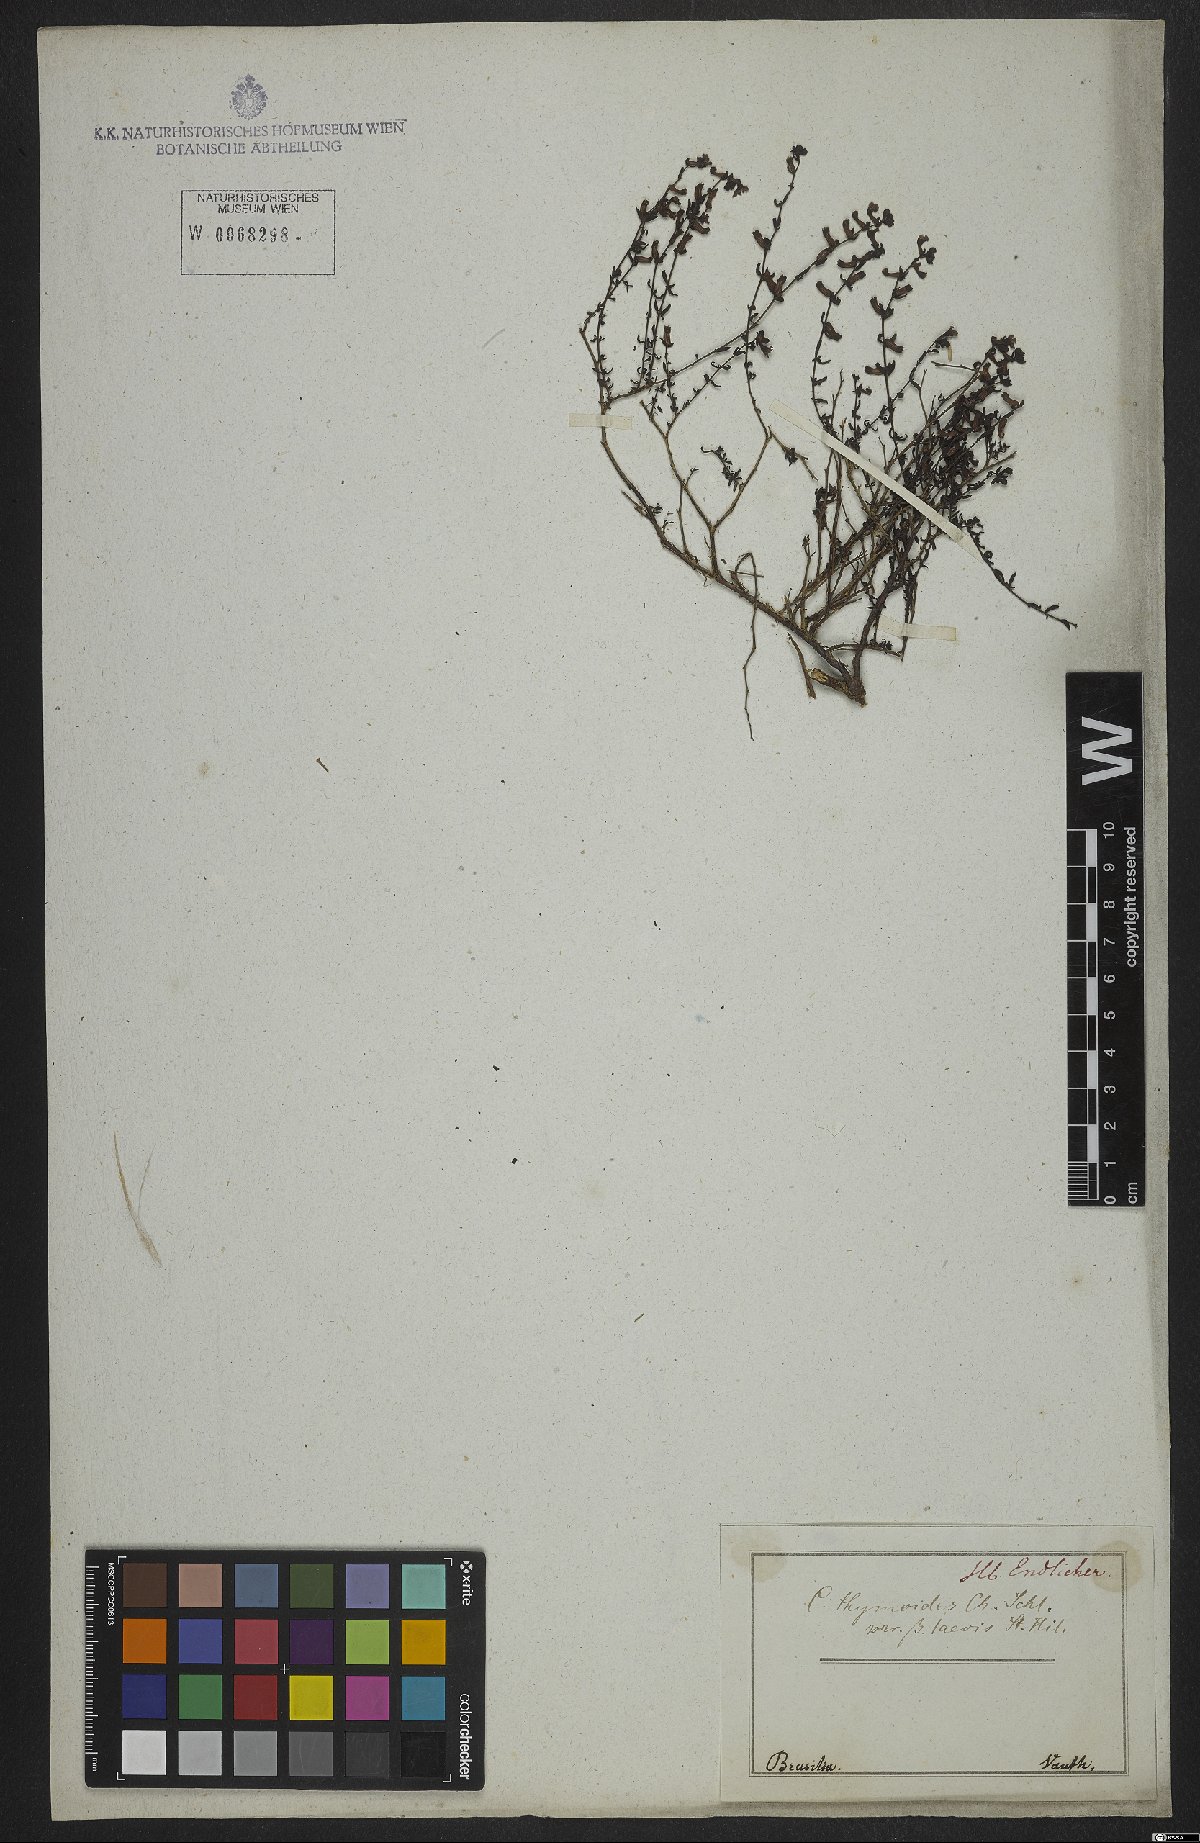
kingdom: Plantae
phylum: Tracheophyta
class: Magnoliopsida
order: Myrtales
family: Lythraceae
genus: Cuphea
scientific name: Cuphea thymoides
